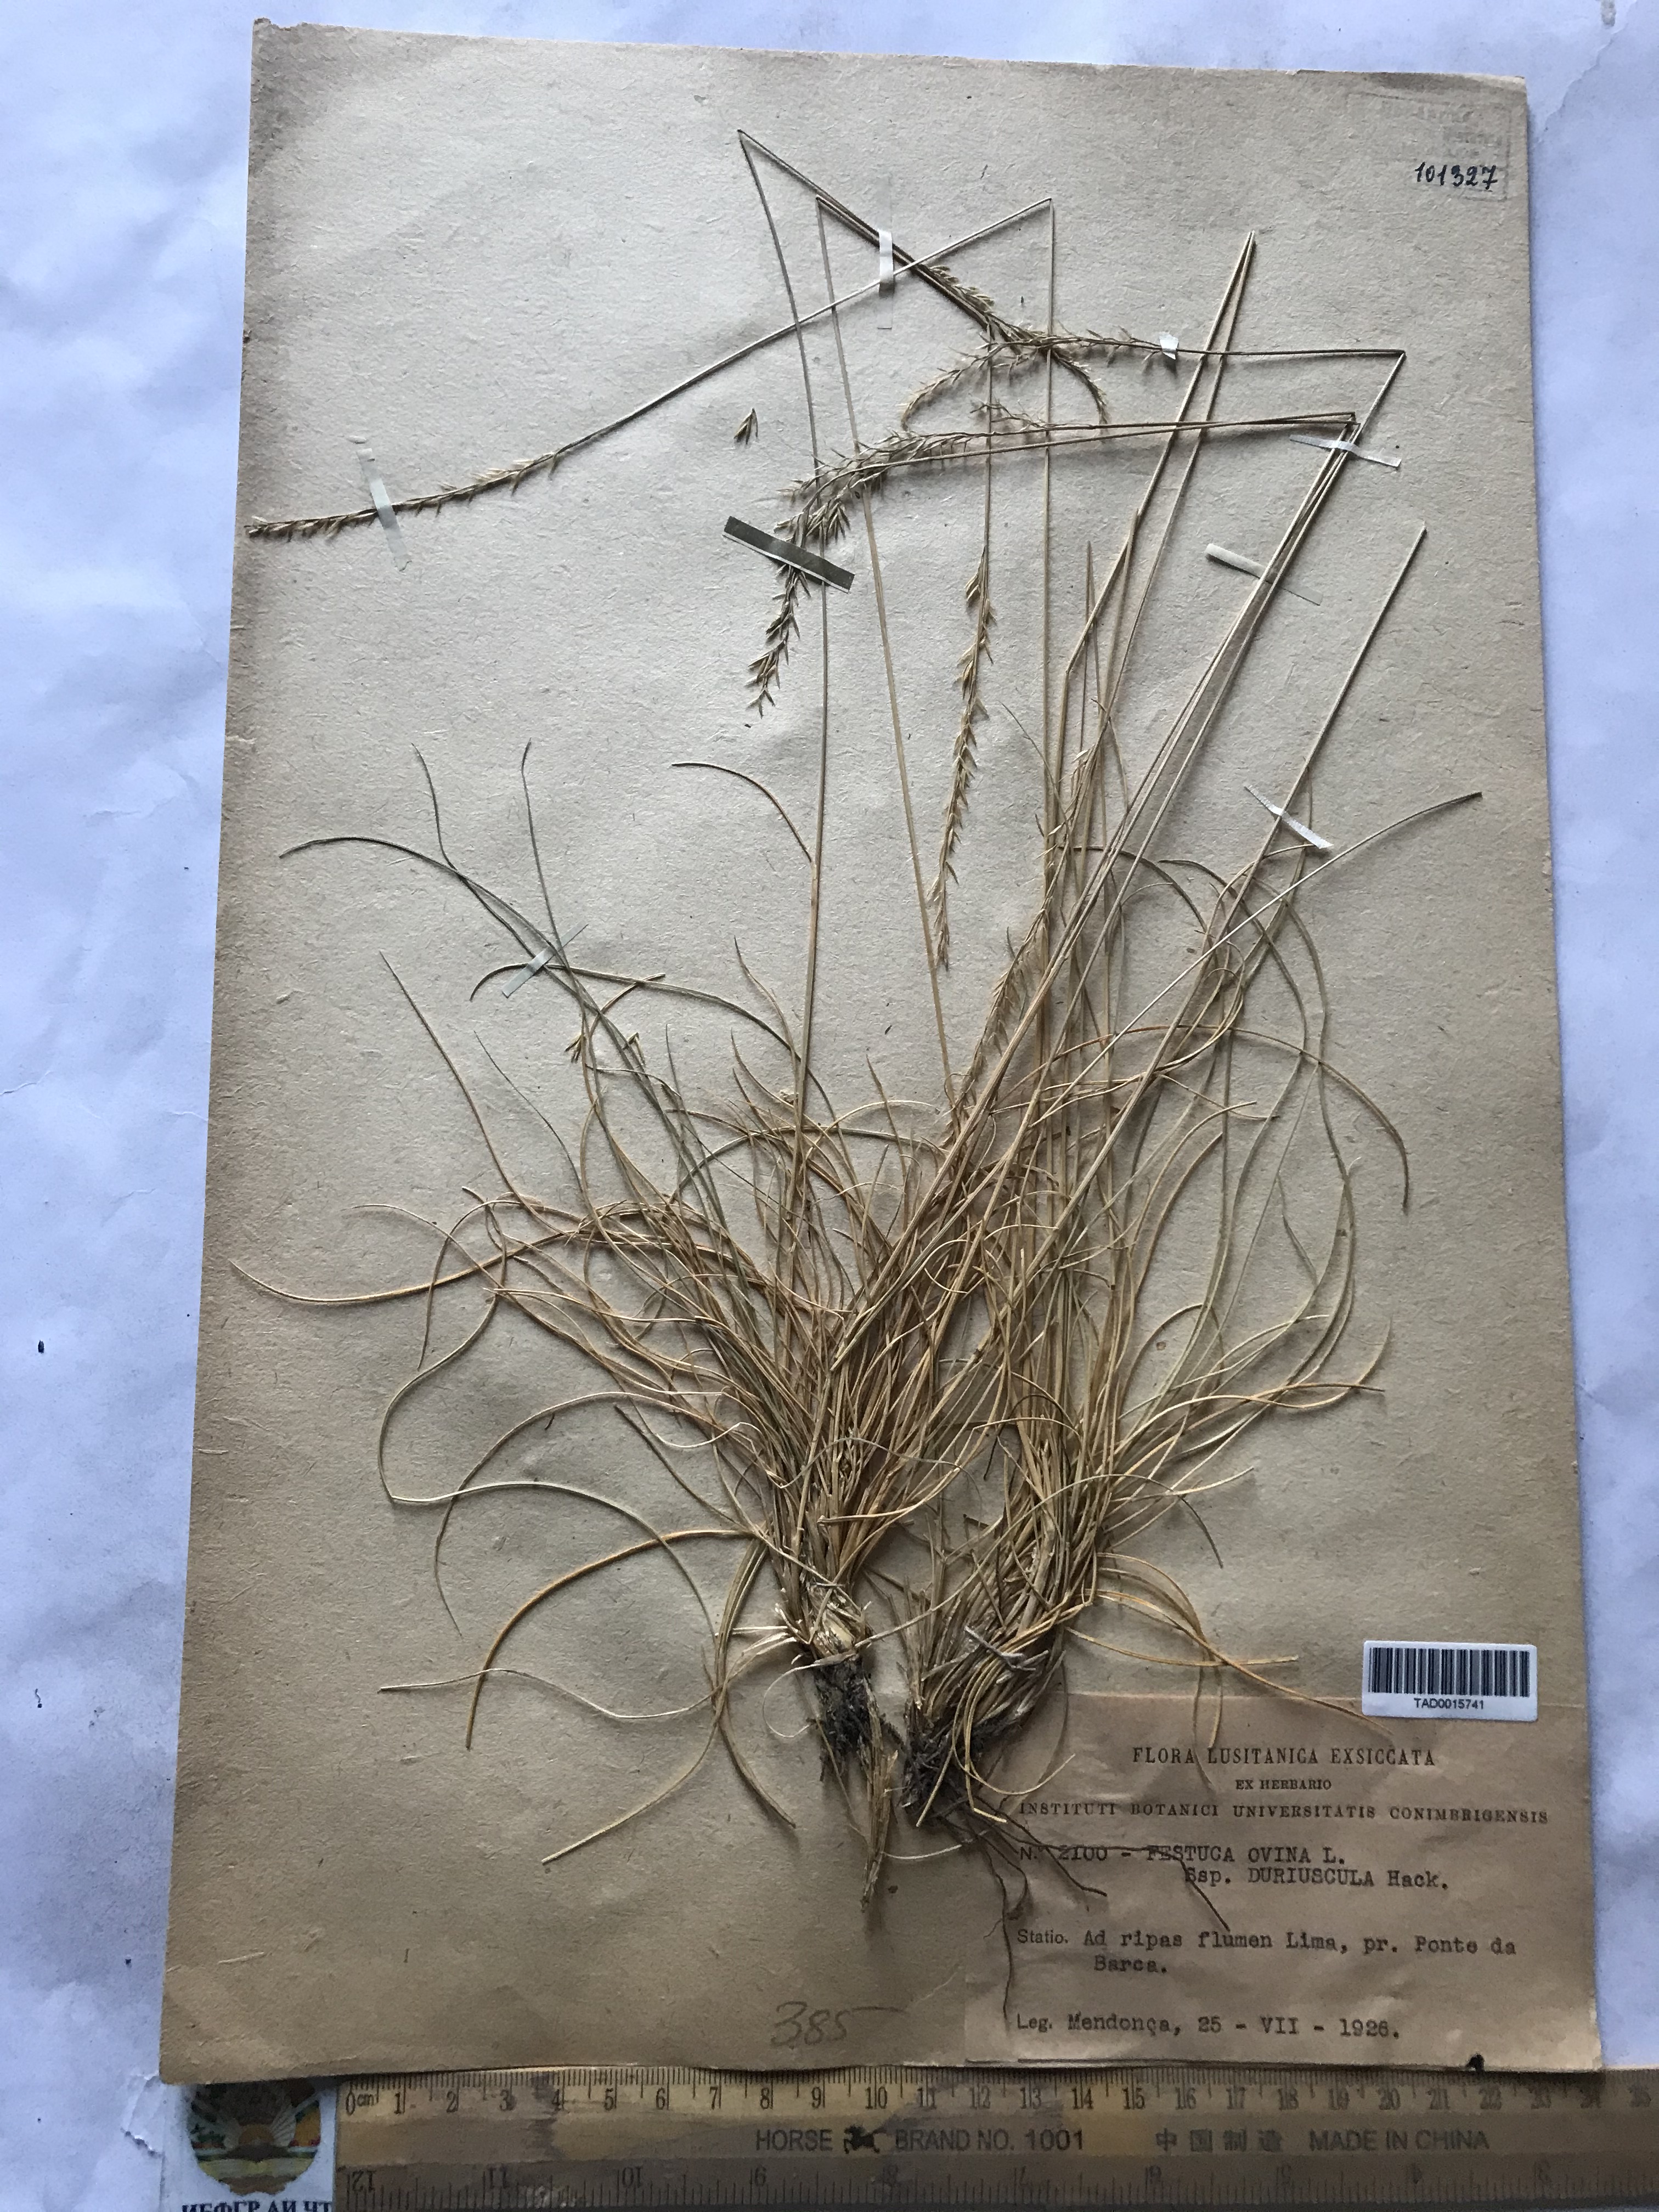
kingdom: Plantae
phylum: Tracheophyta
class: Liliopsida
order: Poales
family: Poaceae
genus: Festuca
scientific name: Festuca ovina
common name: Sheep fescue
